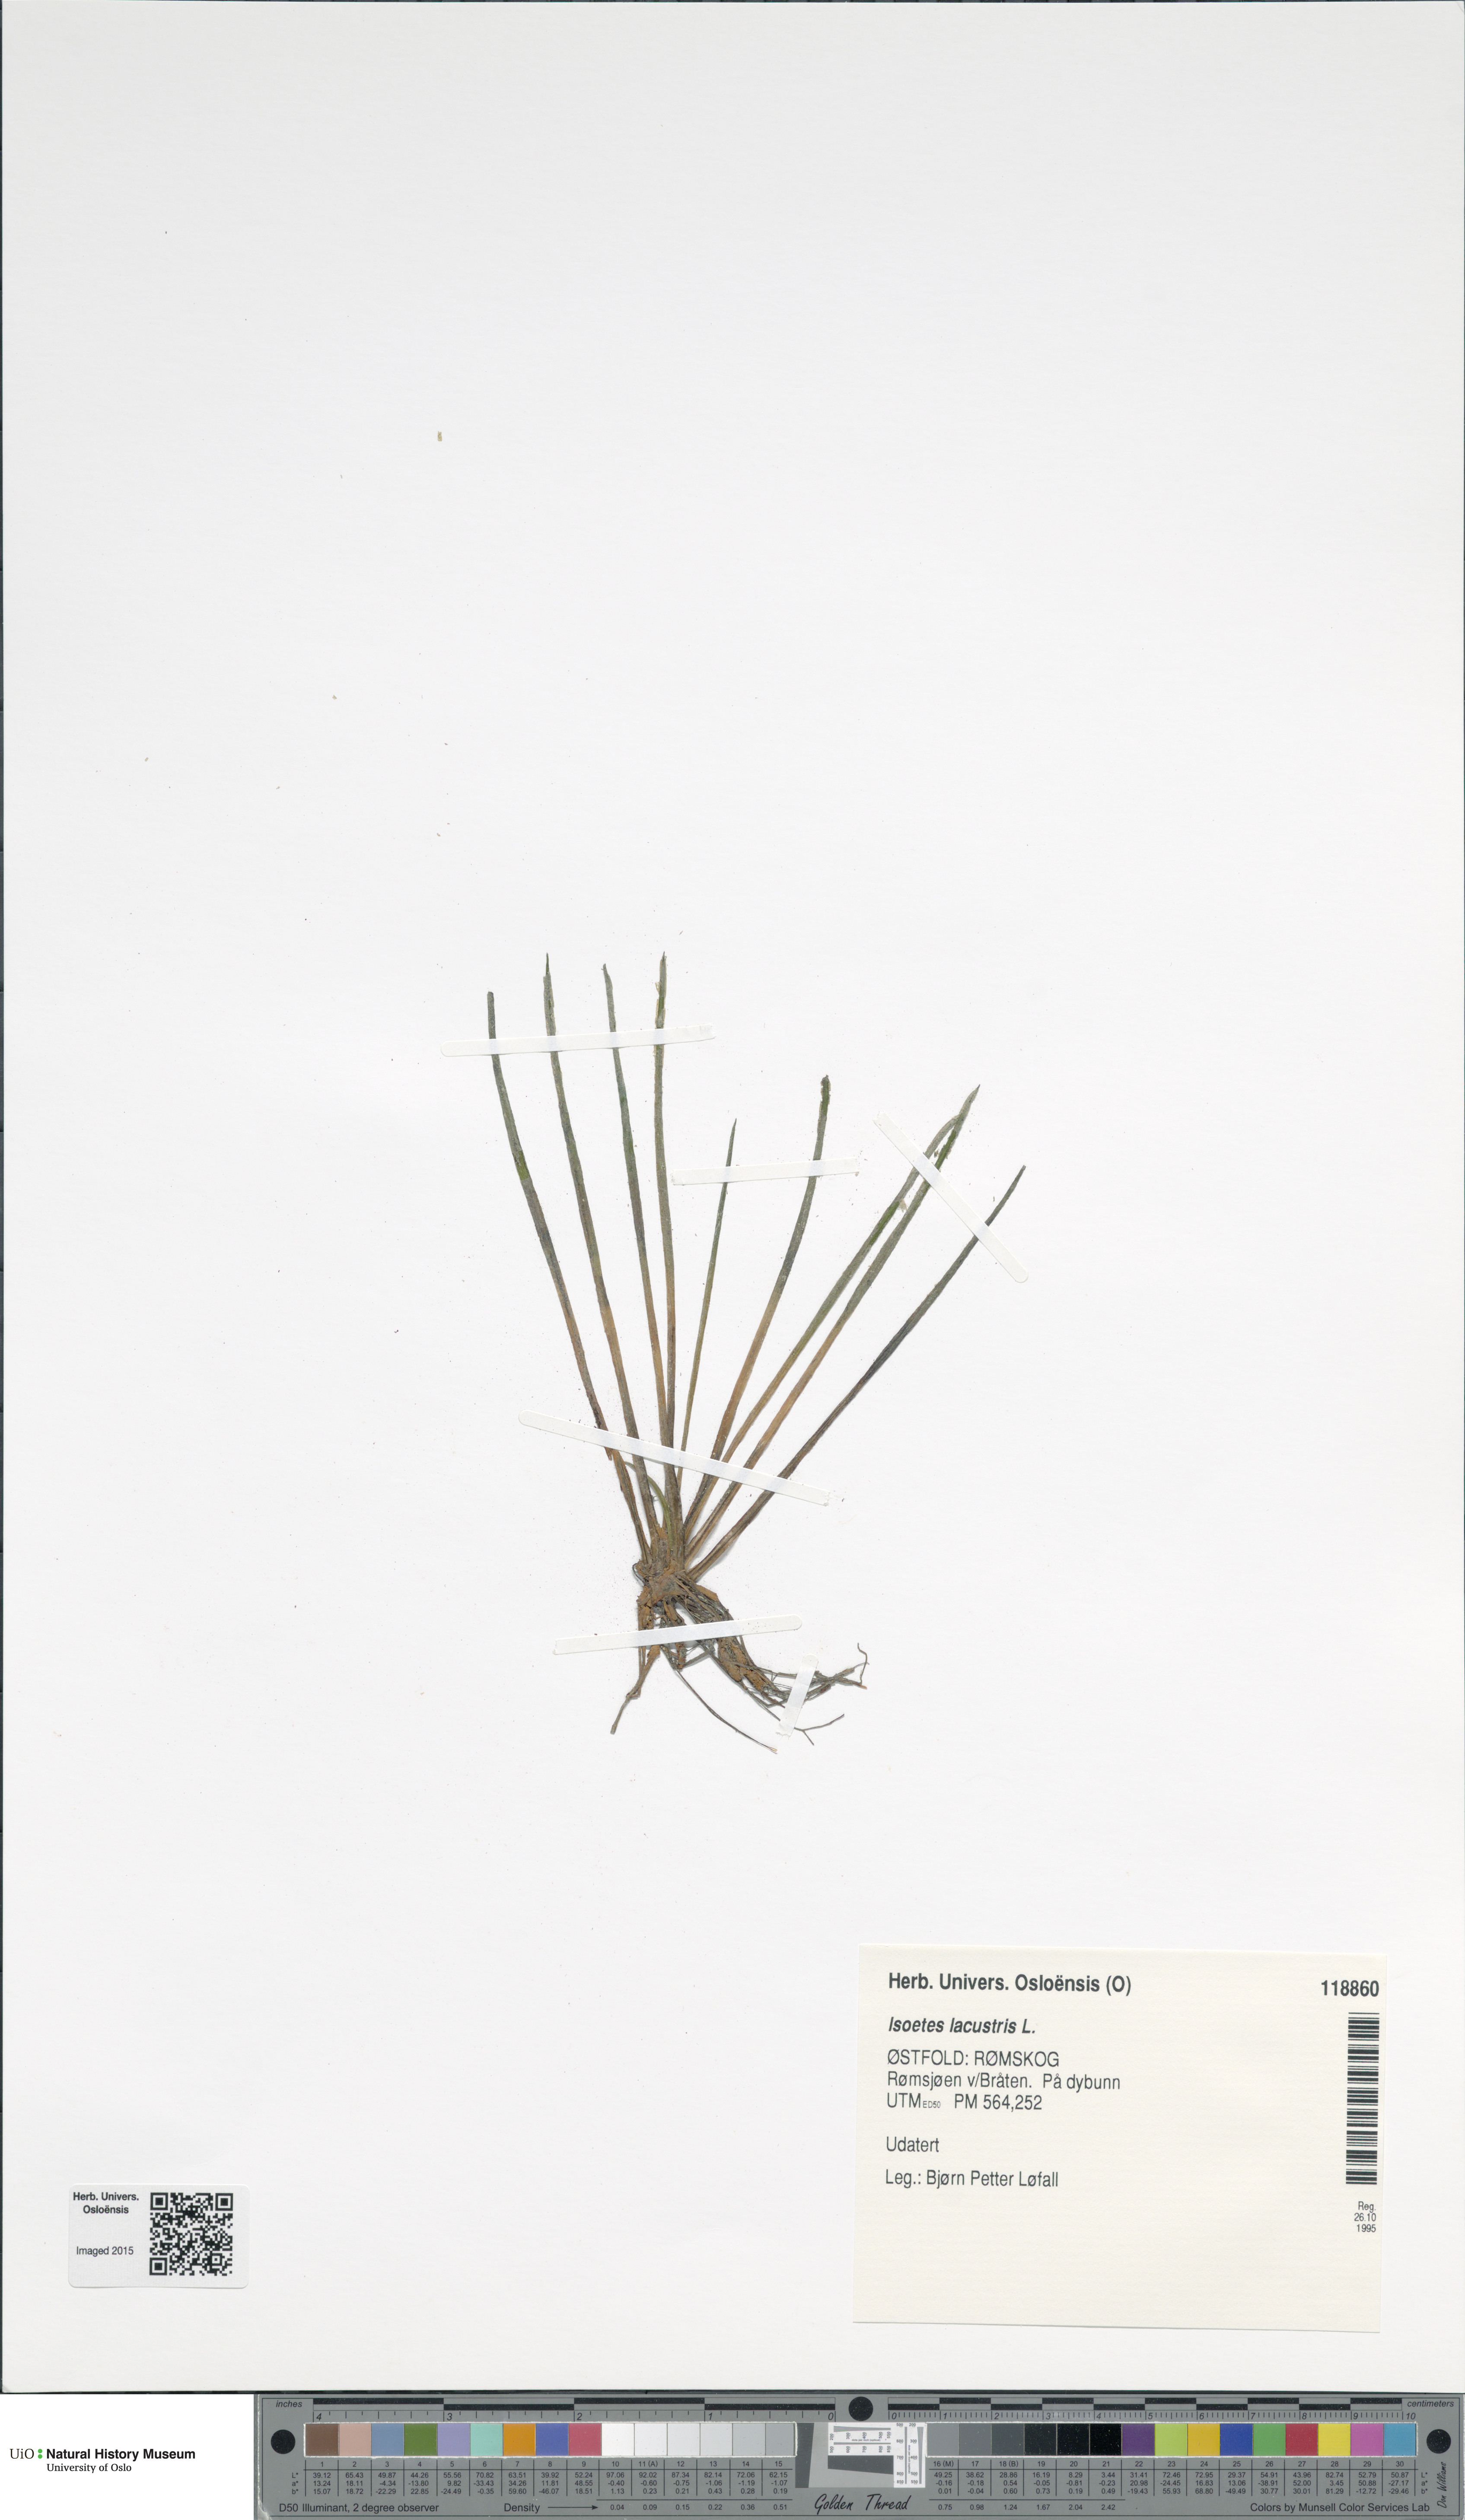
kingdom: Plantae
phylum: Tracheophyta
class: Lycopodiopsida
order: Isoetales
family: Isoetaceae
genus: Isoetes
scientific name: Isoetes lacustris
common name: Common quillwort
